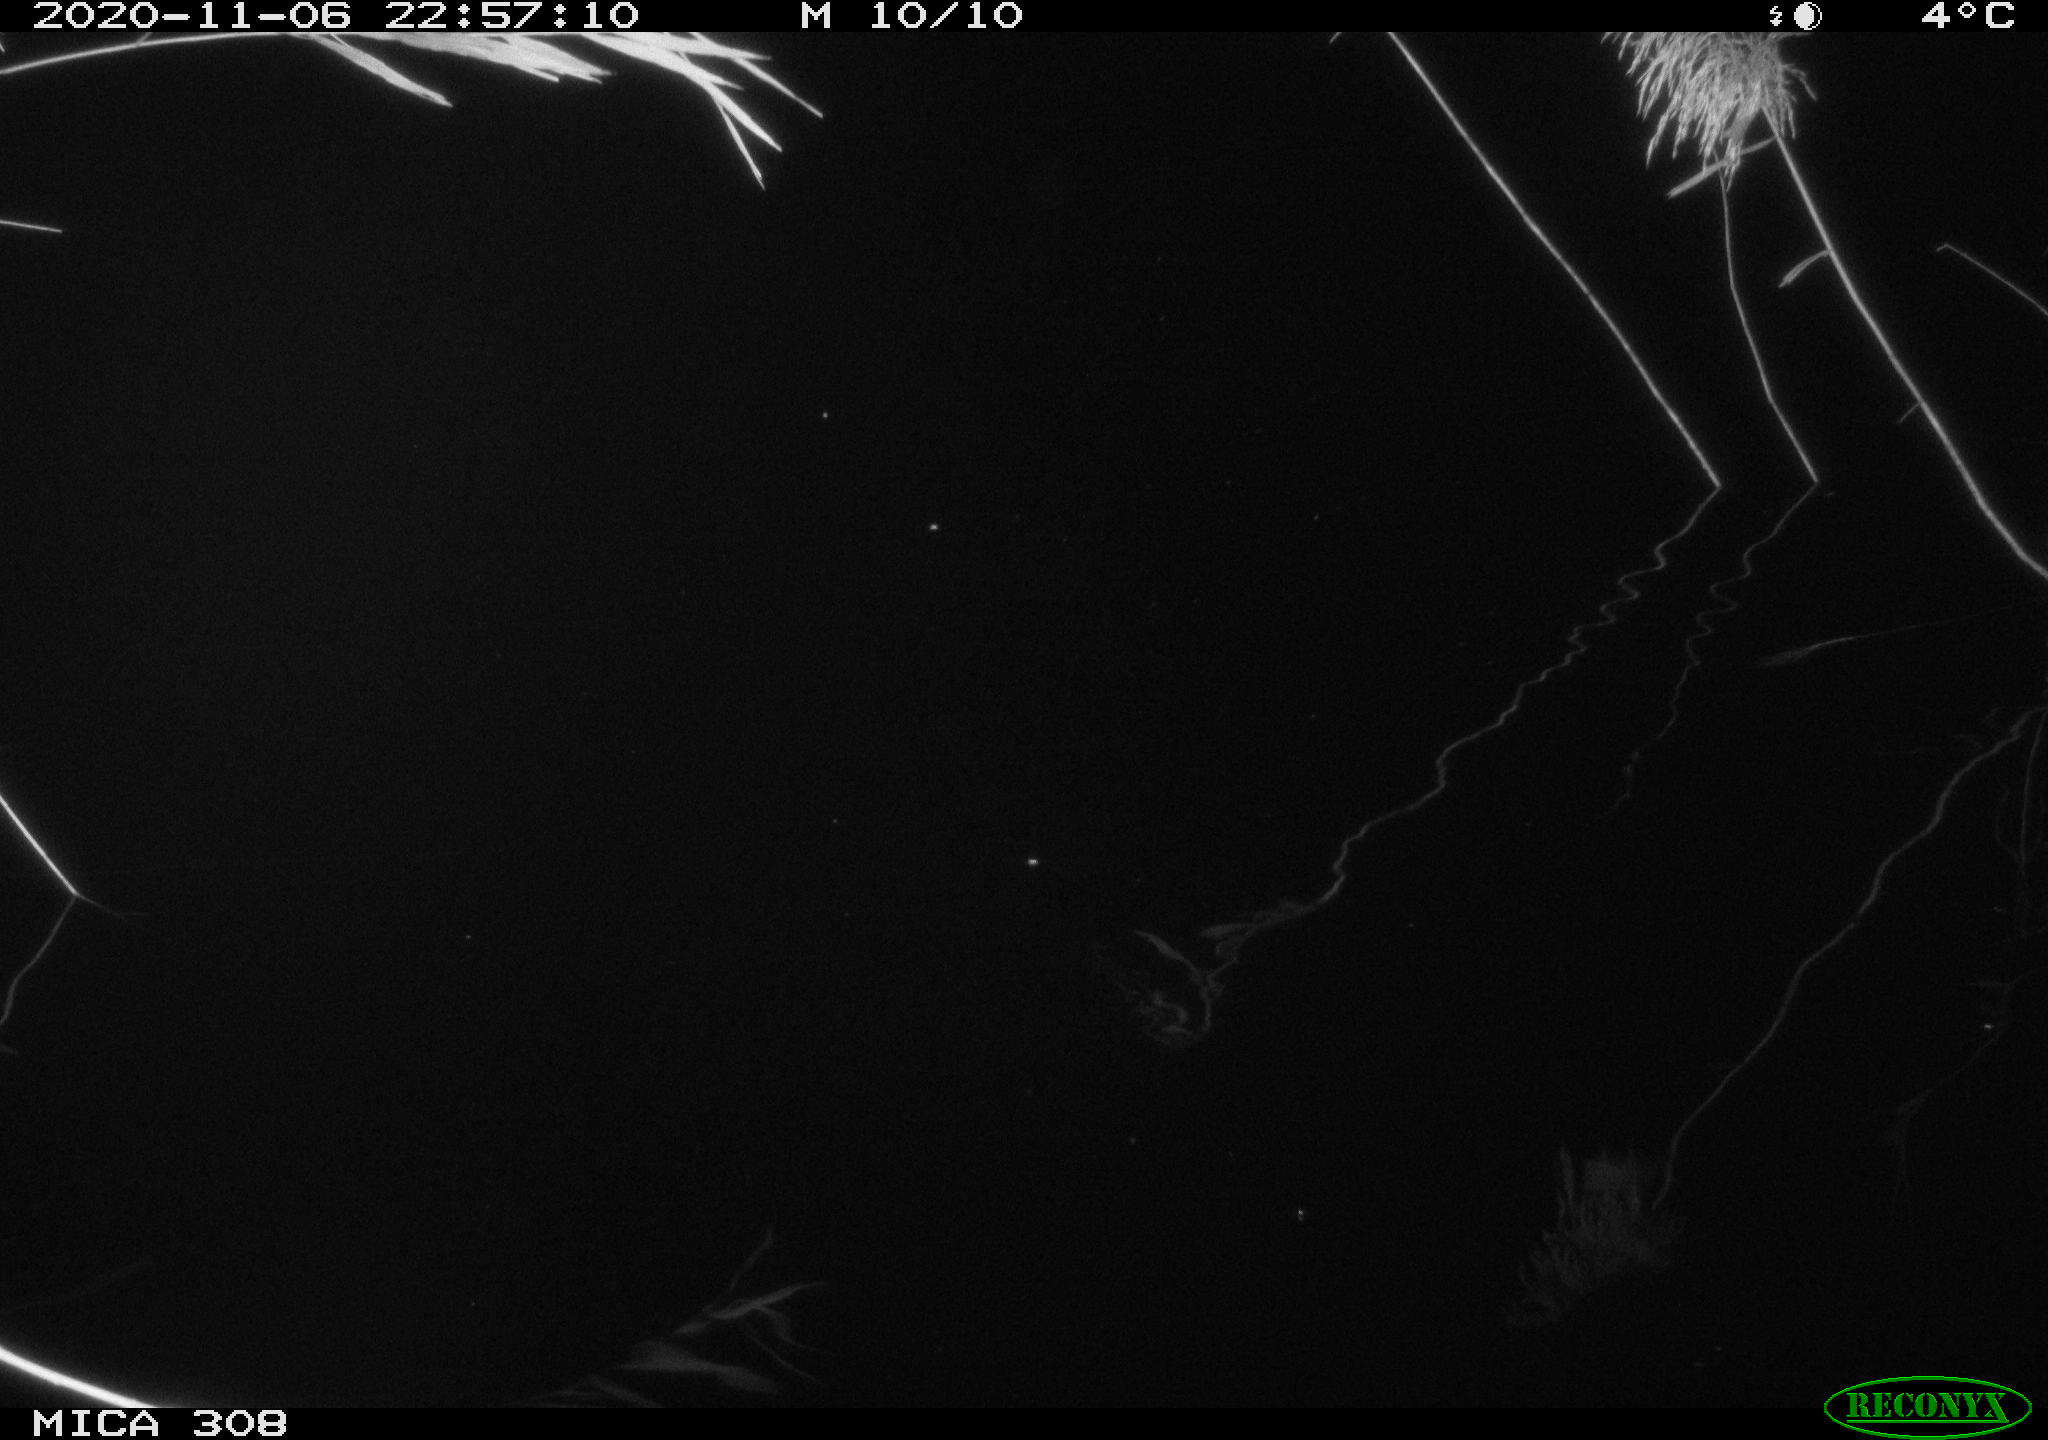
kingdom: Animalia
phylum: Chordata
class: Aves
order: Anseriformes
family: Anatidae
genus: Anas
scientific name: Anas platyrhynchos
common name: Mallard
